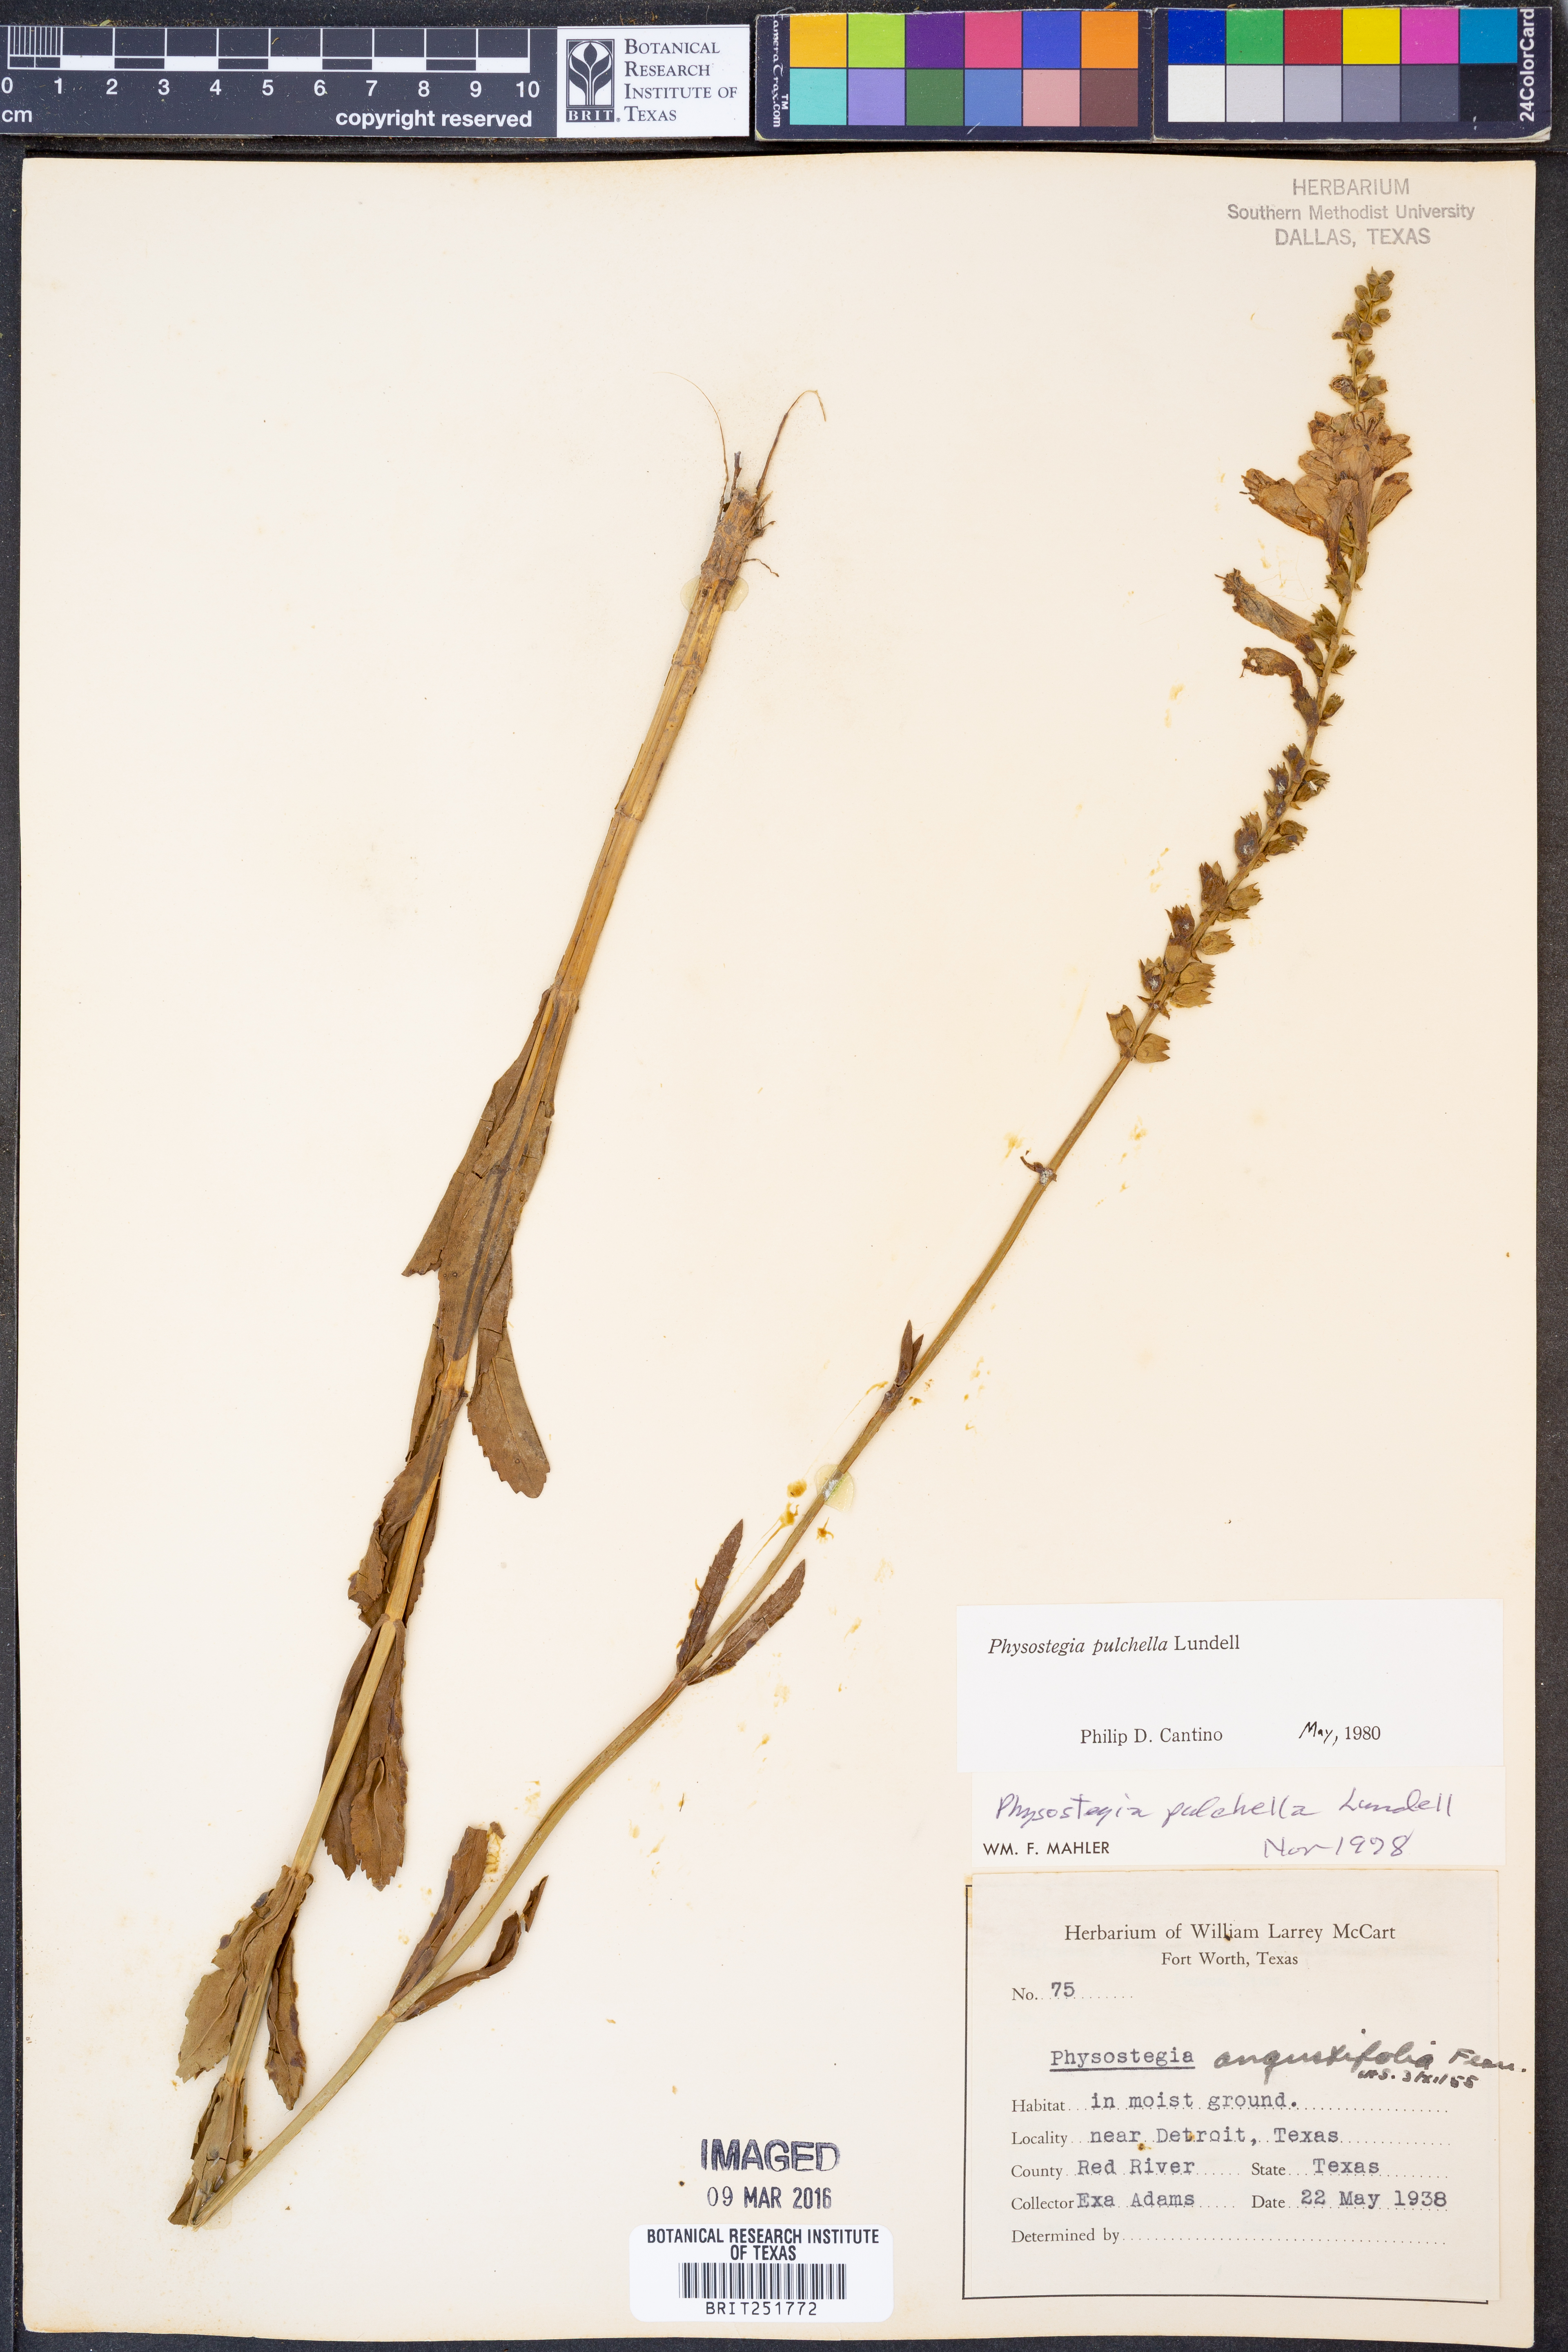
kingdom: Plantae
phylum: Tracheophyta
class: Magnoliopsida
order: Lamiales
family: Lamiaceae
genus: Physostegia
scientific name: Physostegia pulchella
